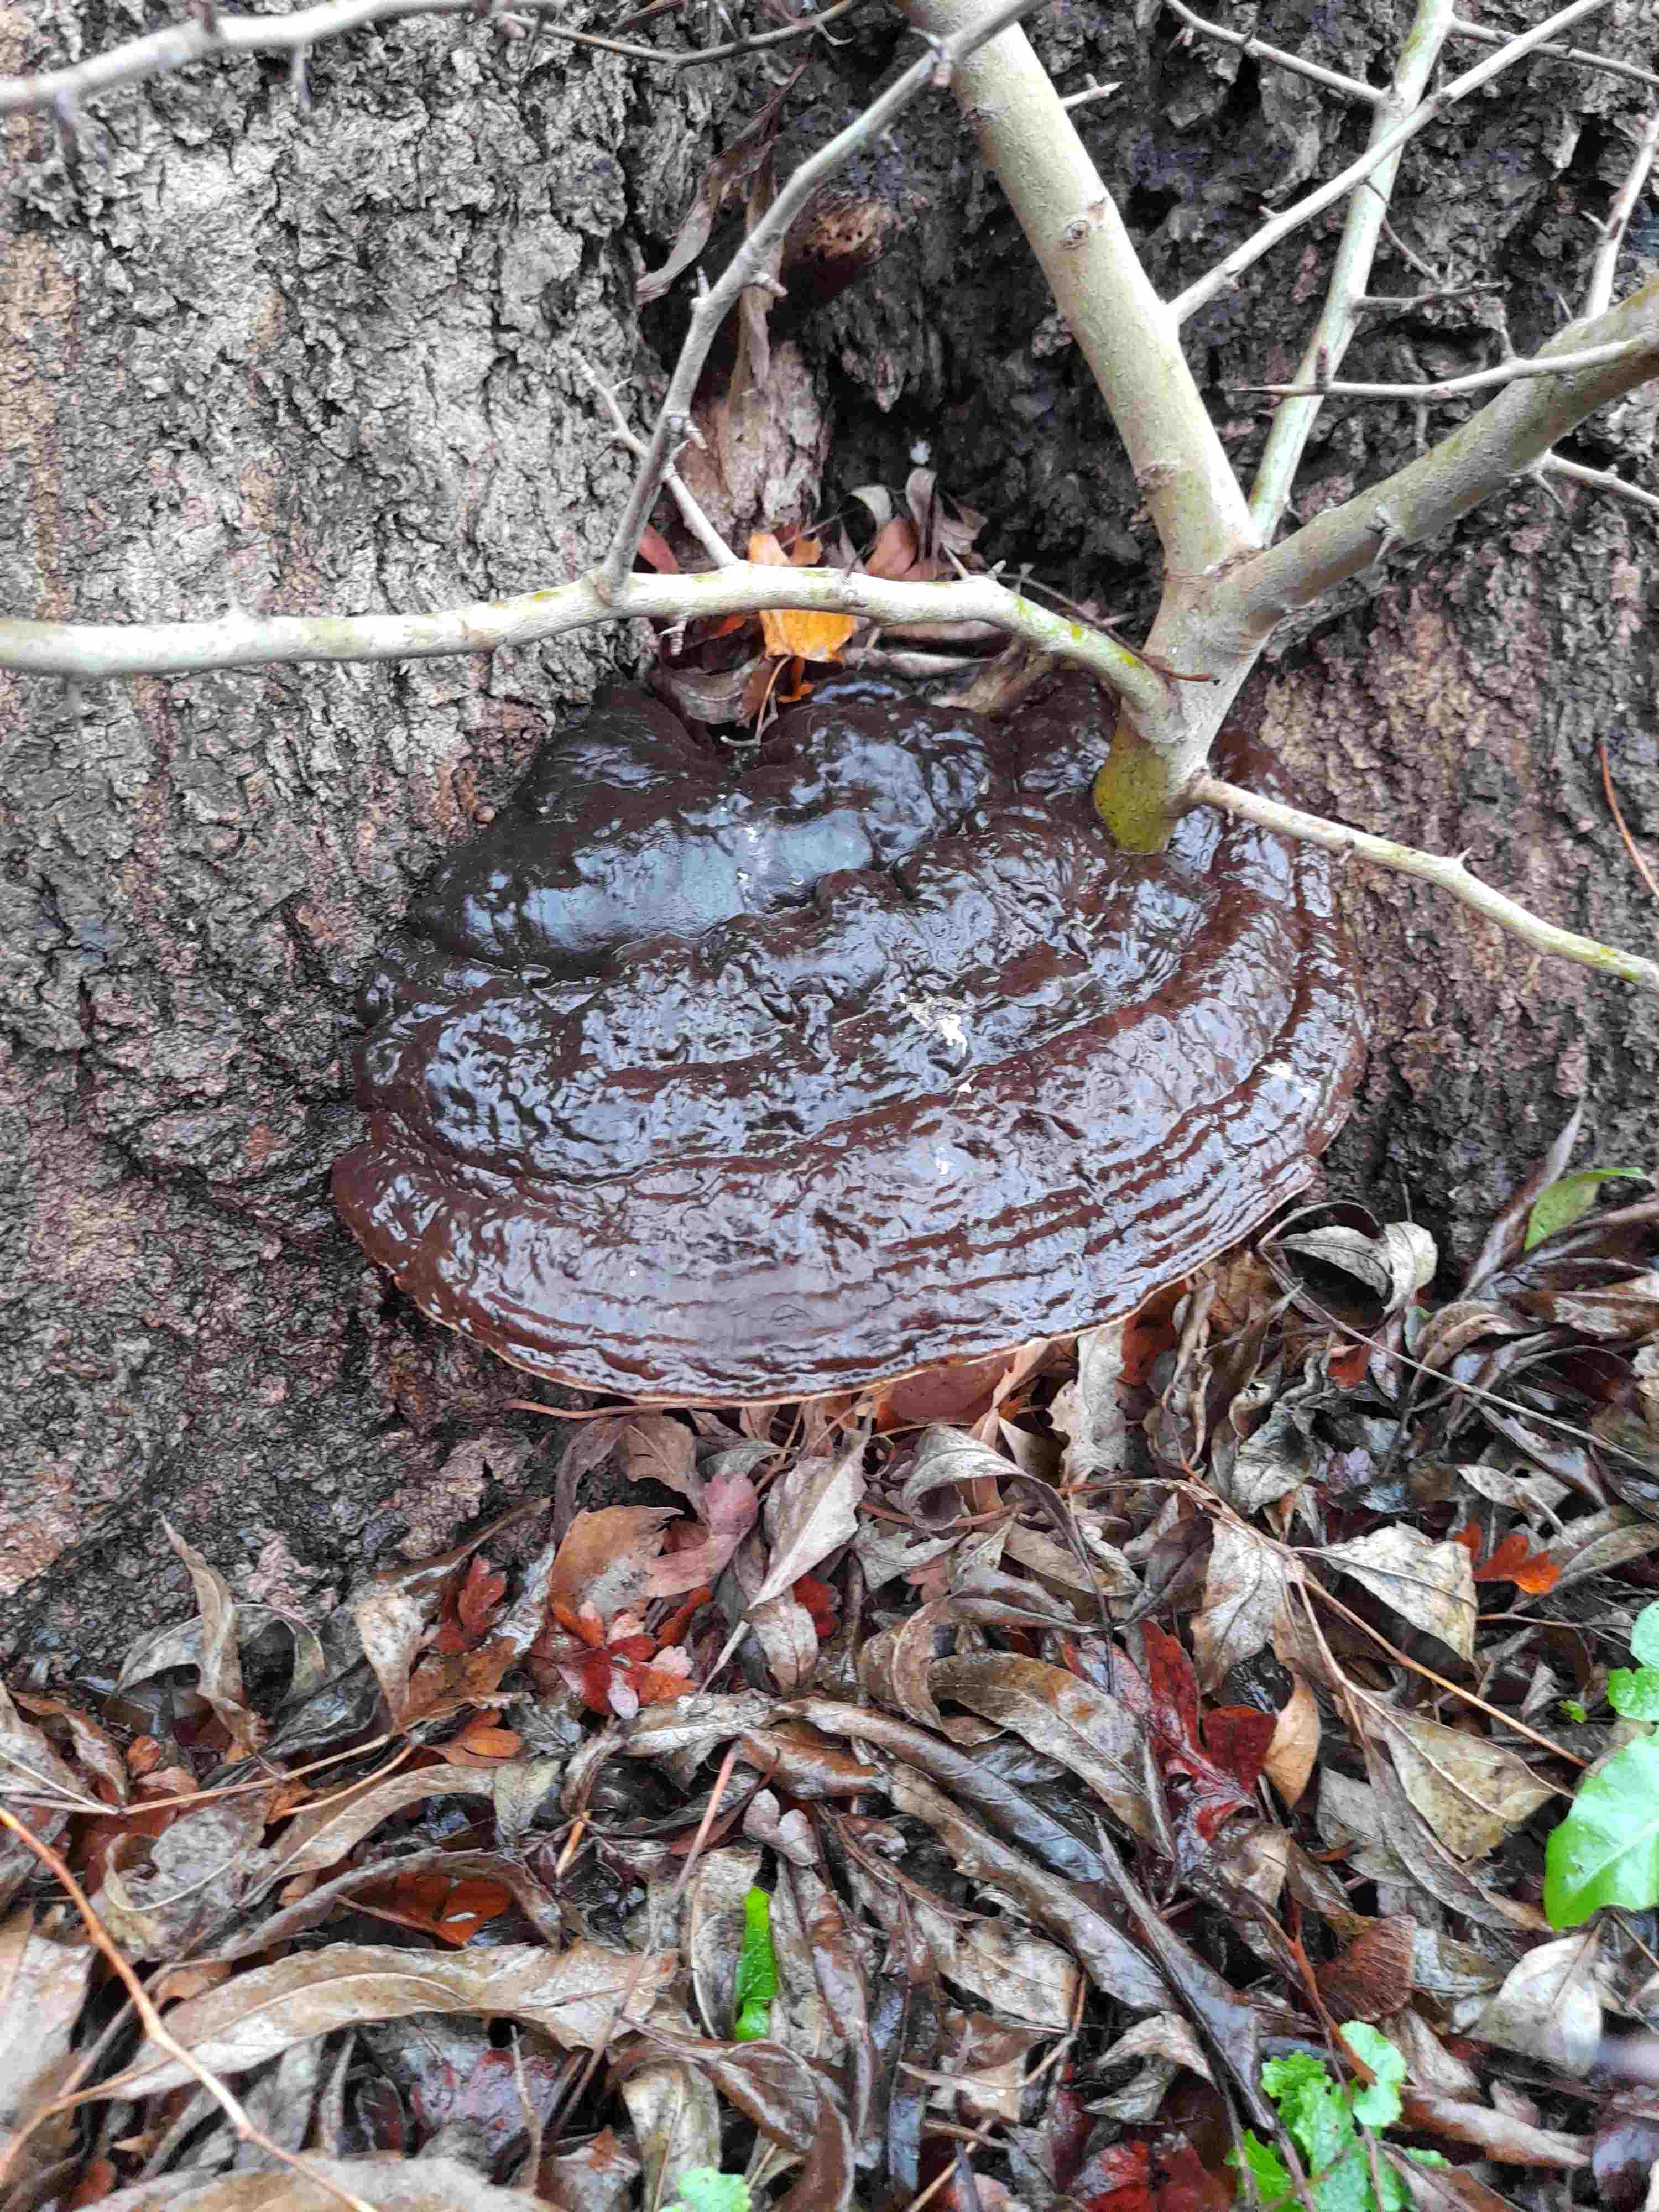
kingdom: Fungi
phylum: Basidiomycota
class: Agaricomycetes
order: Polyporales
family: Polyporaceae
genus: Ganoderma
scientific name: Ganoderma pfeifferi
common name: kobberrød lakporesvamp
